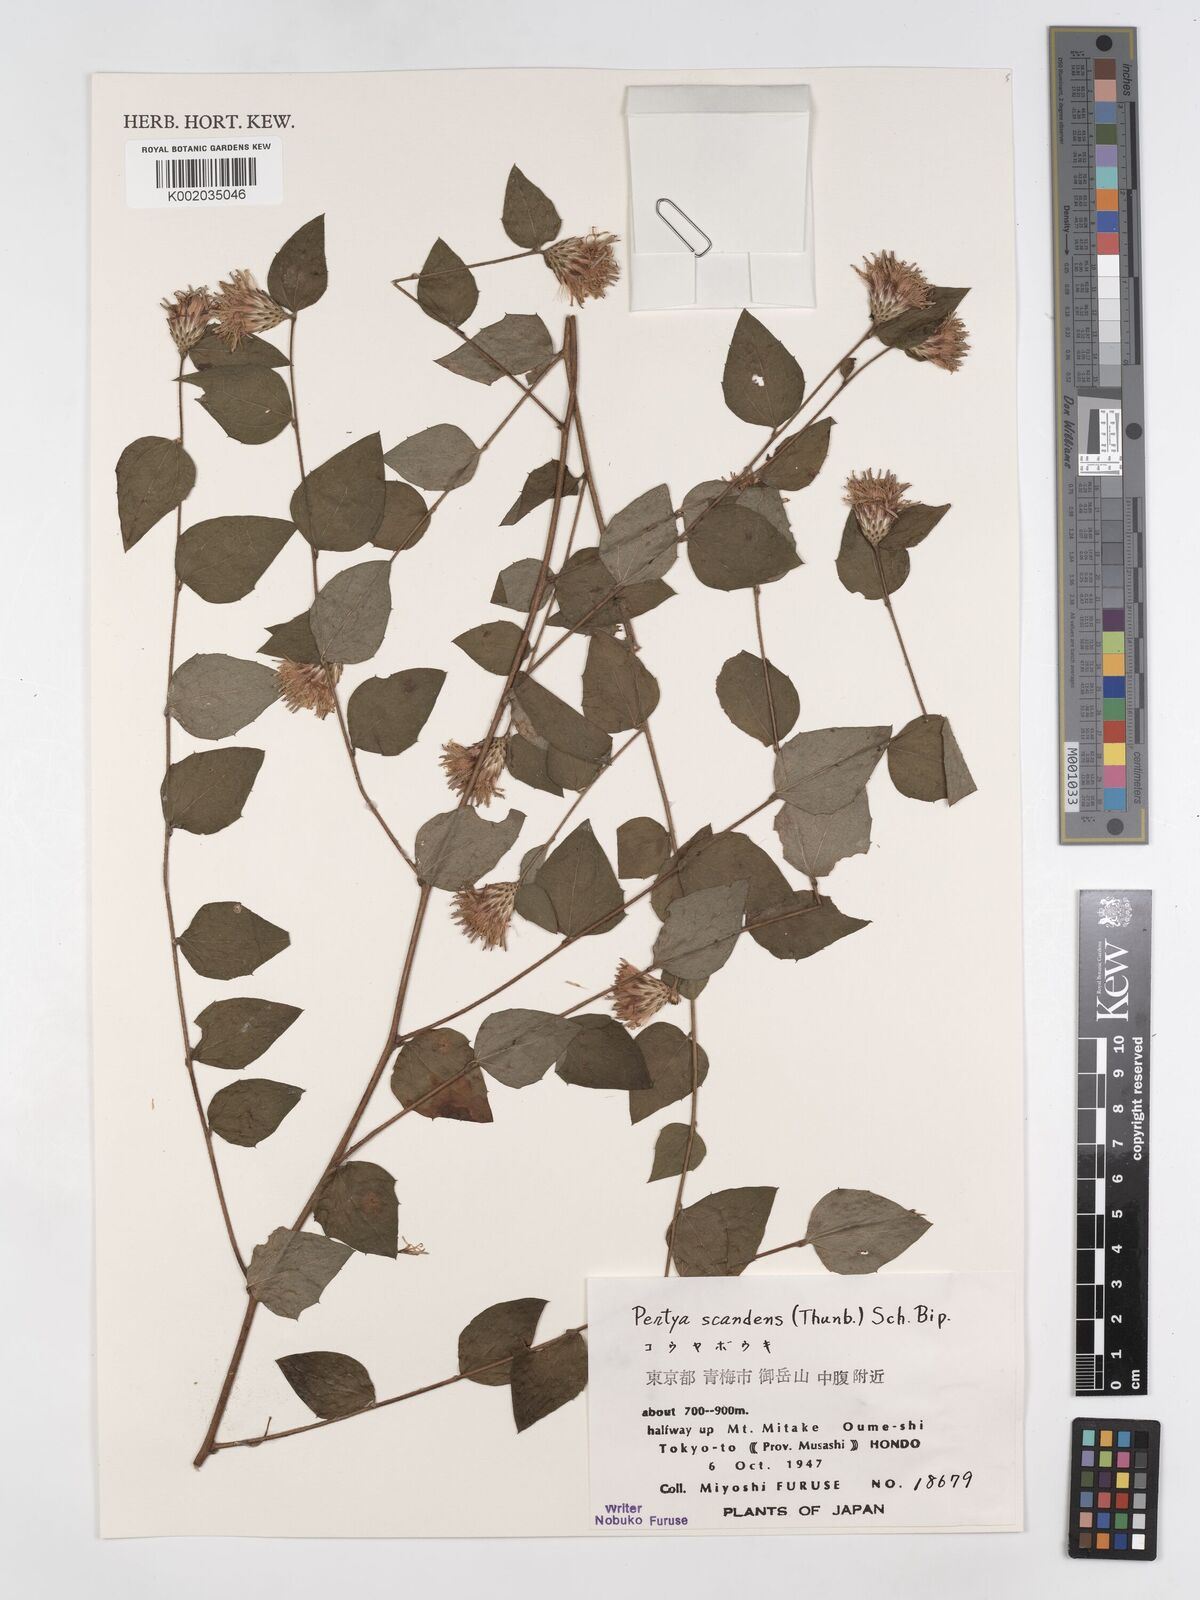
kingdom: Plantae
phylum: Tracheophyta
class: Magnoliopsida
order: Asterales
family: Asteraceae
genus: Pertya
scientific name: Pertya scandens
